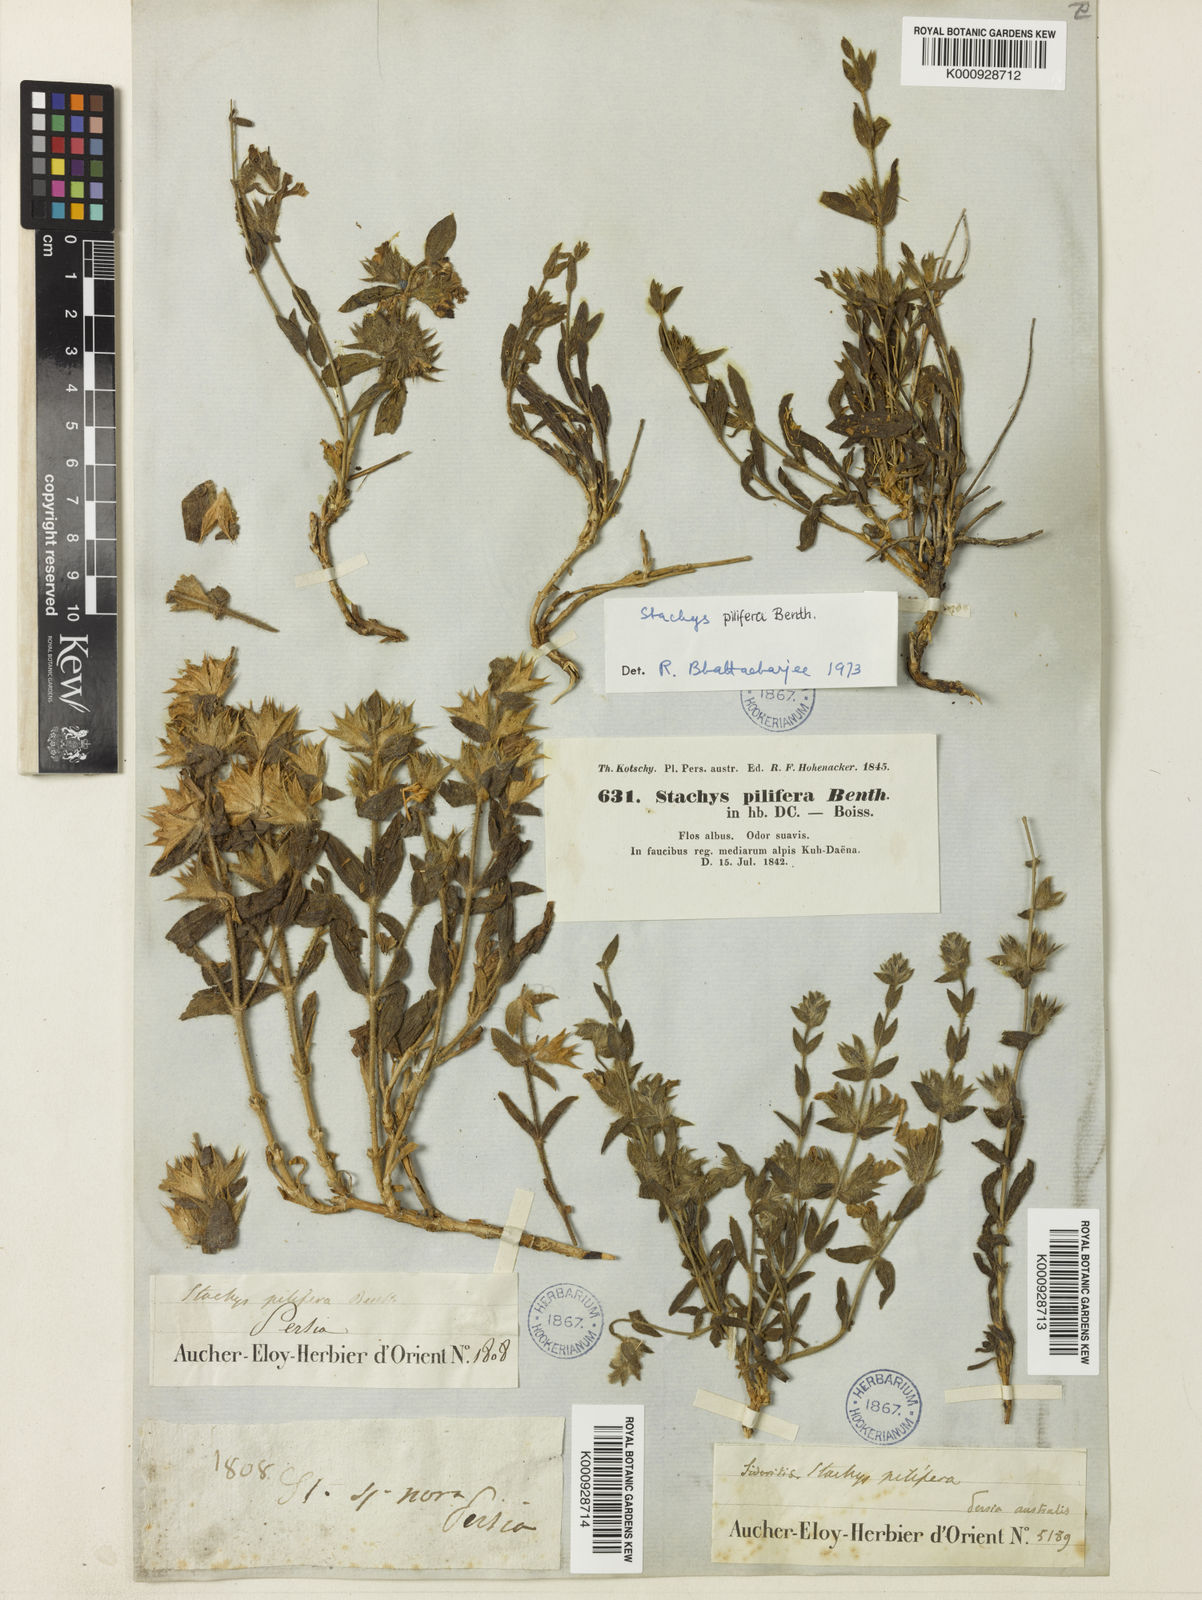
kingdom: Plantae
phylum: Tracheophyta
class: Magnoliopsida
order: Lamiales
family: Lamiaceae
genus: Stachys
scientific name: Stachys pilifera
